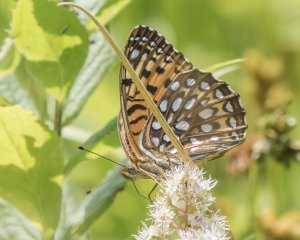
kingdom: Animalia
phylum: Arthropoda
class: Insecta
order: Lepidoptera
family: Nymphalidae
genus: Speyeria
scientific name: Speyeria atlantis
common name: Atlantis Fritillary
